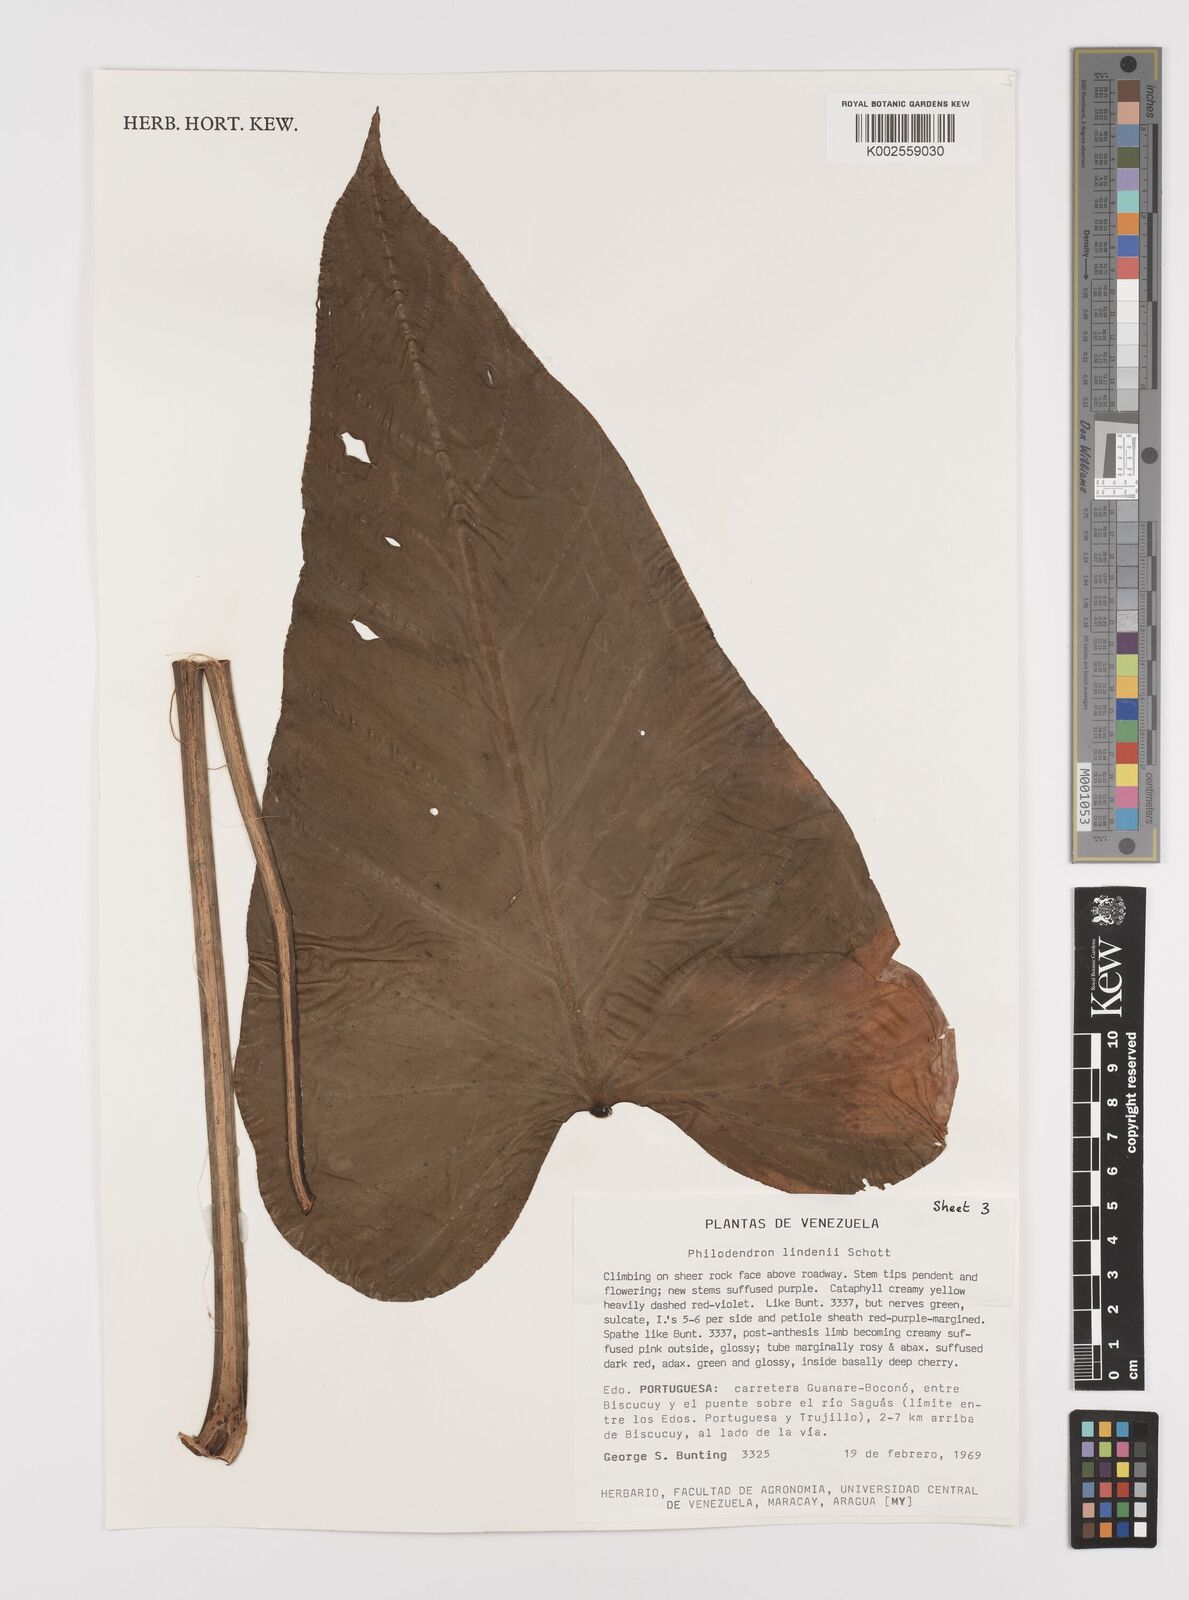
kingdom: Plantae
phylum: Tracheophyta
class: Liliopsida
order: Alismatales
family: Araceae
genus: Philodendron
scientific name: Philodendron lindenii
